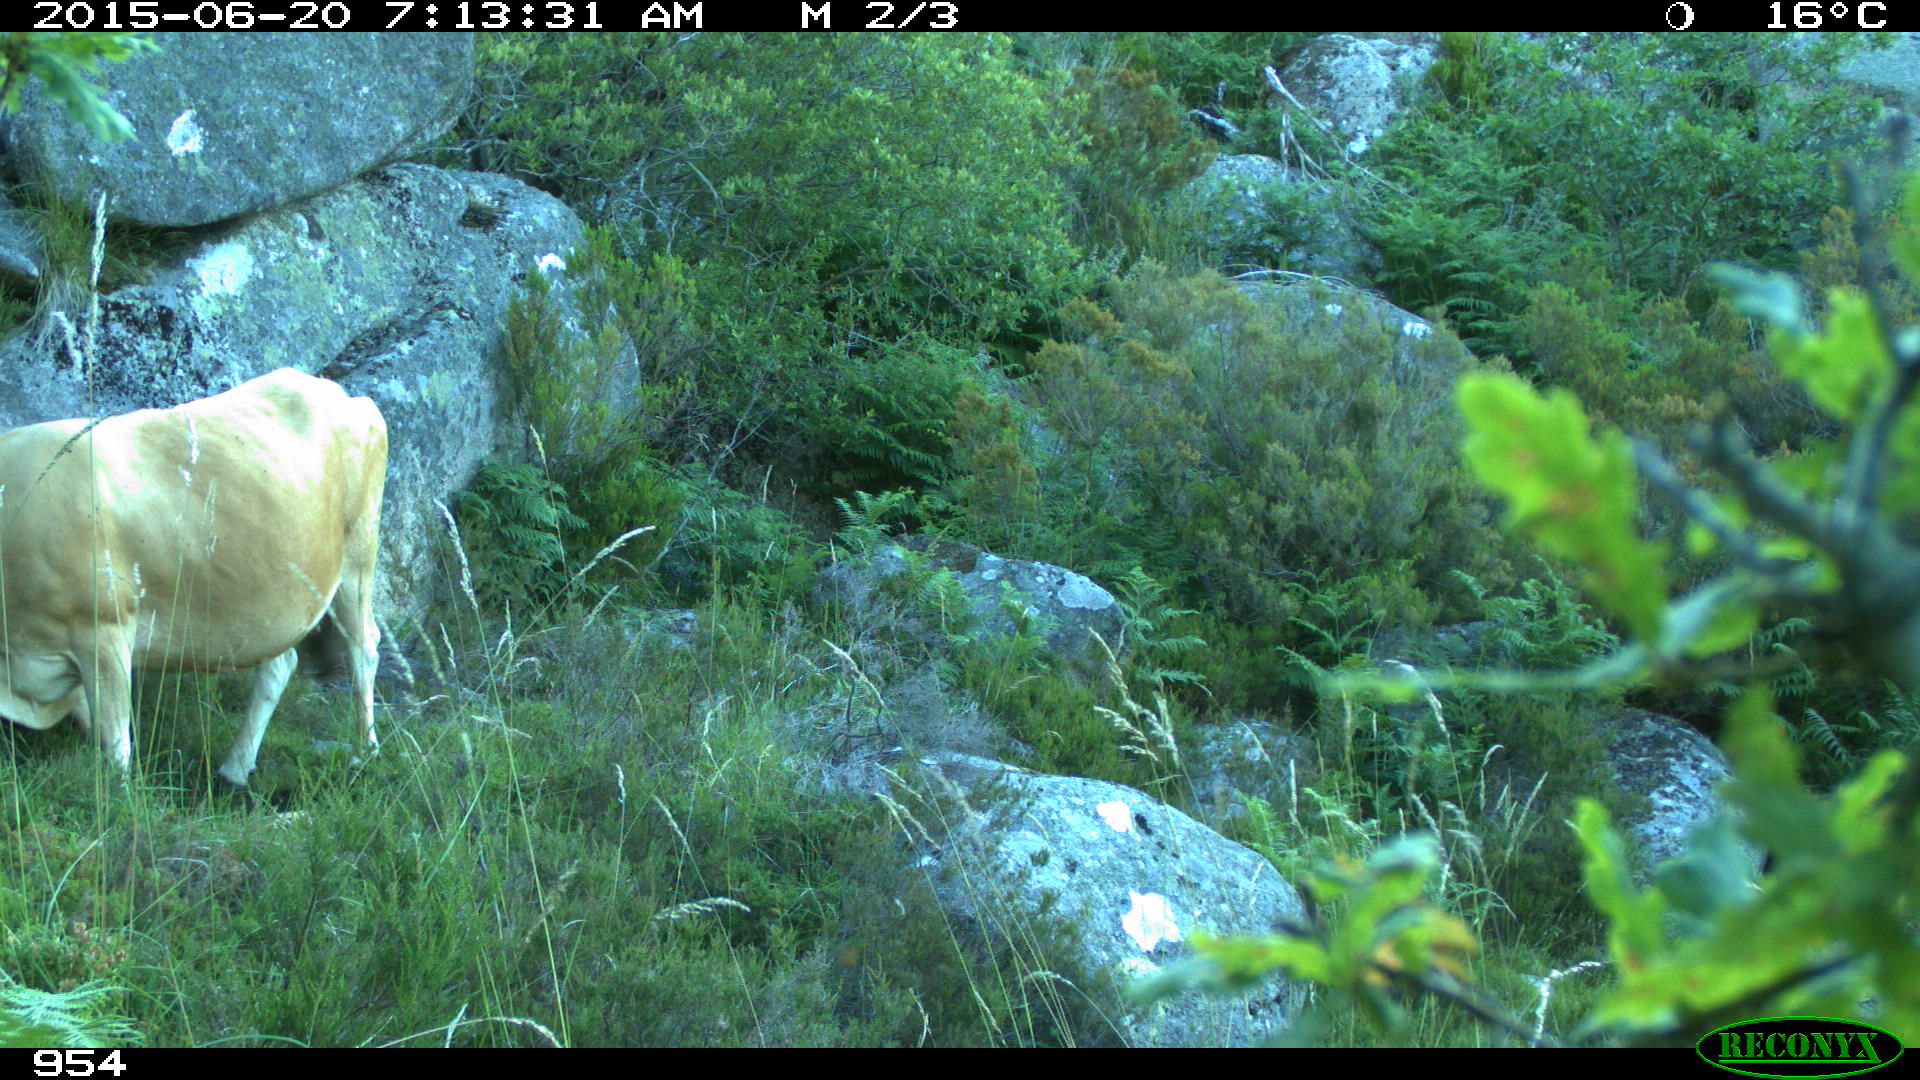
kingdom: Animalia
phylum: Chordata
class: Mammalia
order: Artiodactyla
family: Bovidae
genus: Bos
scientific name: Bos taurus
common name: Domesticated cattle
